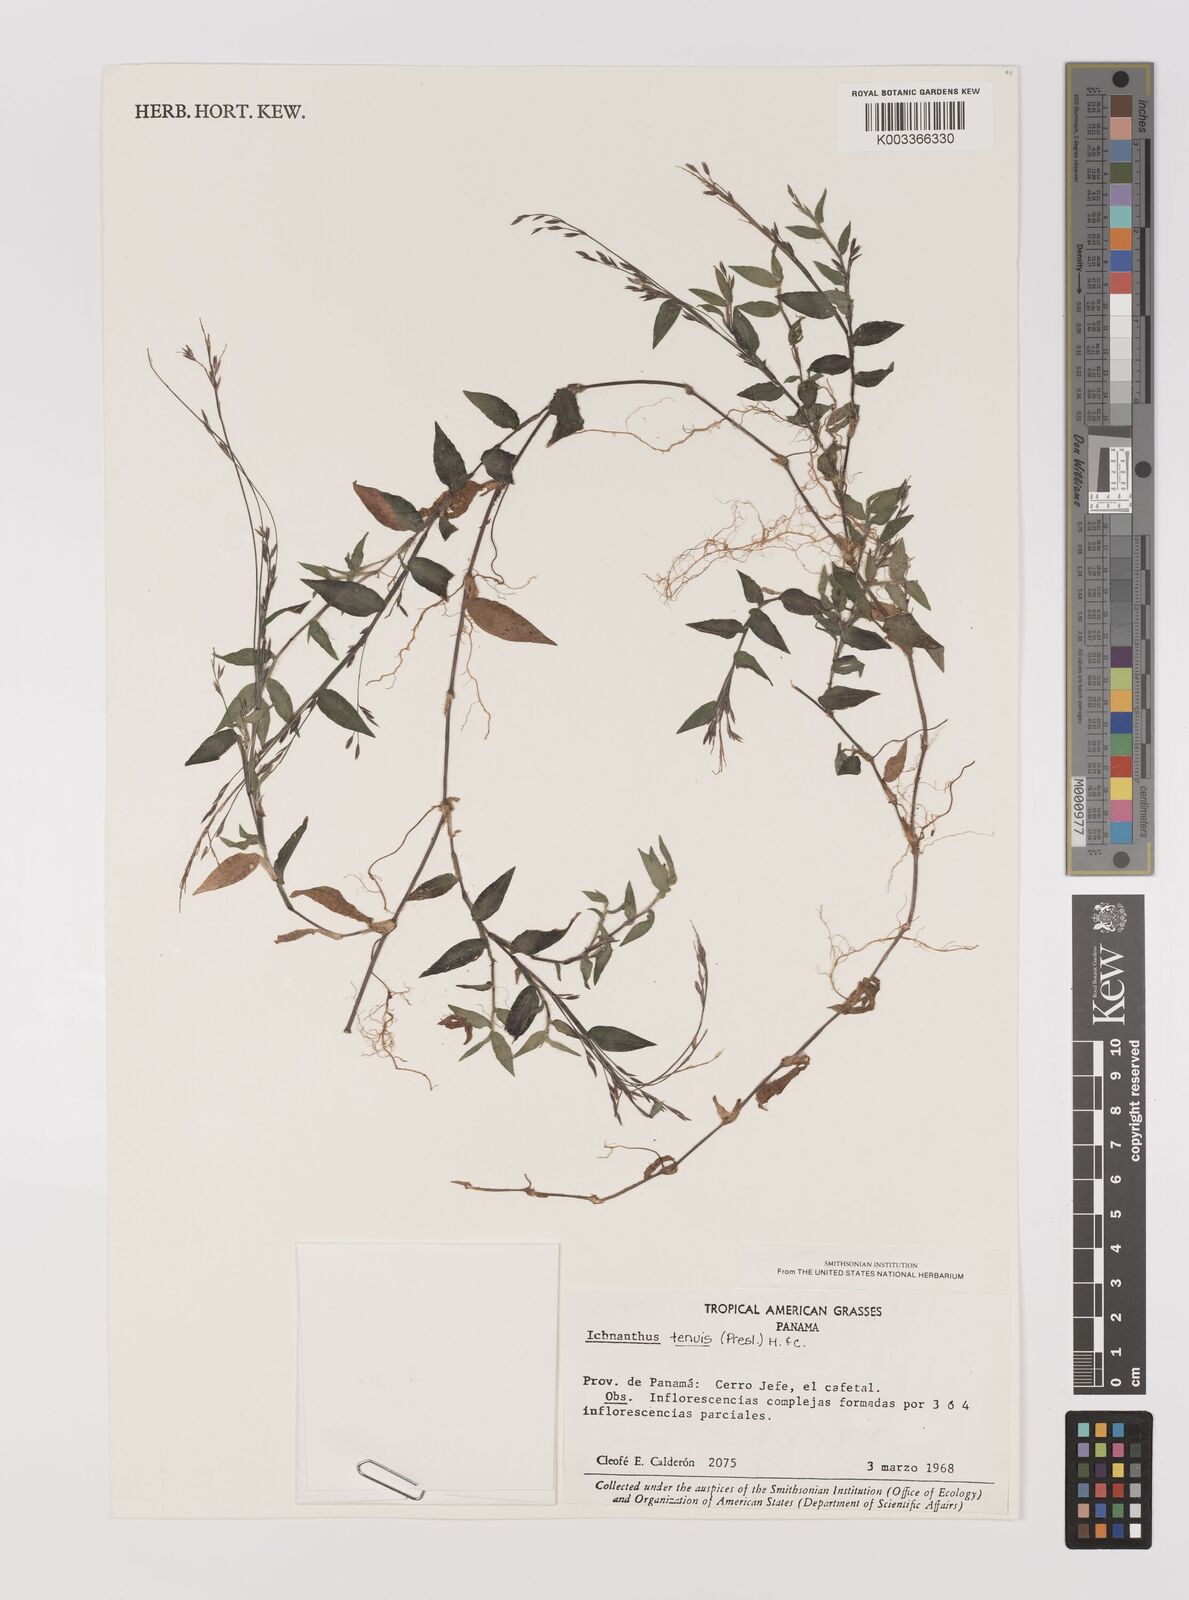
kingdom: Plantae
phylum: Tracheophyta
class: Liliopsida
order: Poales
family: Poaceae
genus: Ichnanthus
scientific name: Ichnanthus tenuis
